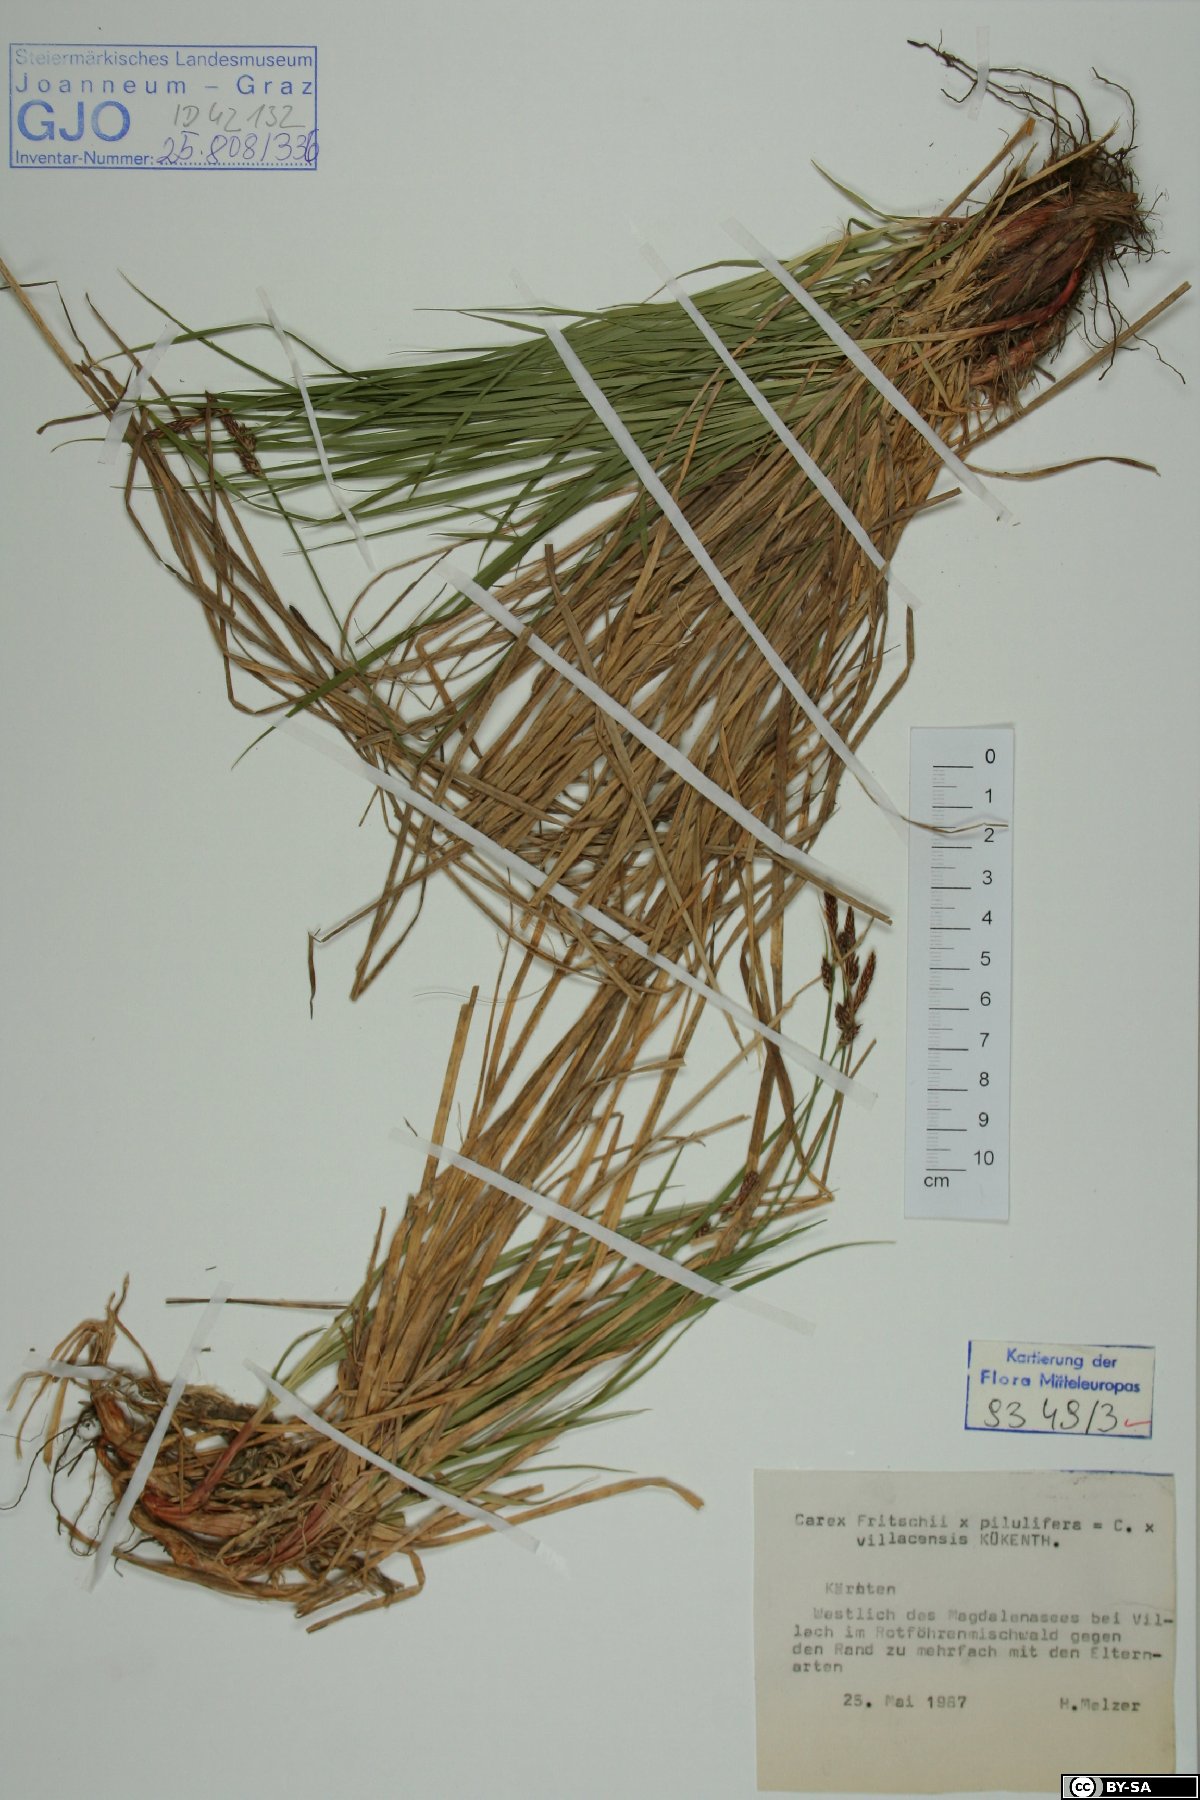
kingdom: Plantae
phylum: Tracheophyta
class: Liliopsida
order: Poales
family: Cyperaceae
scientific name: Cyperaceae
